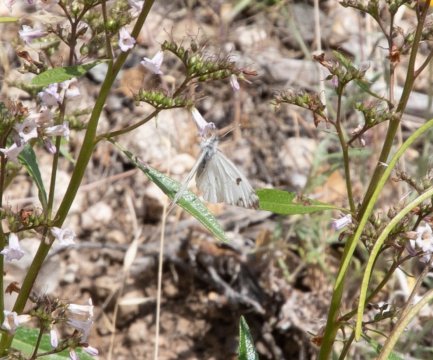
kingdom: Animalia
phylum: Arthropoda
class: Insecta
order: Lepidoptera
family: Pieridae
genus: Anthocharis
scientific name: Anthocharis lanceolata
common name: Gray Marble
